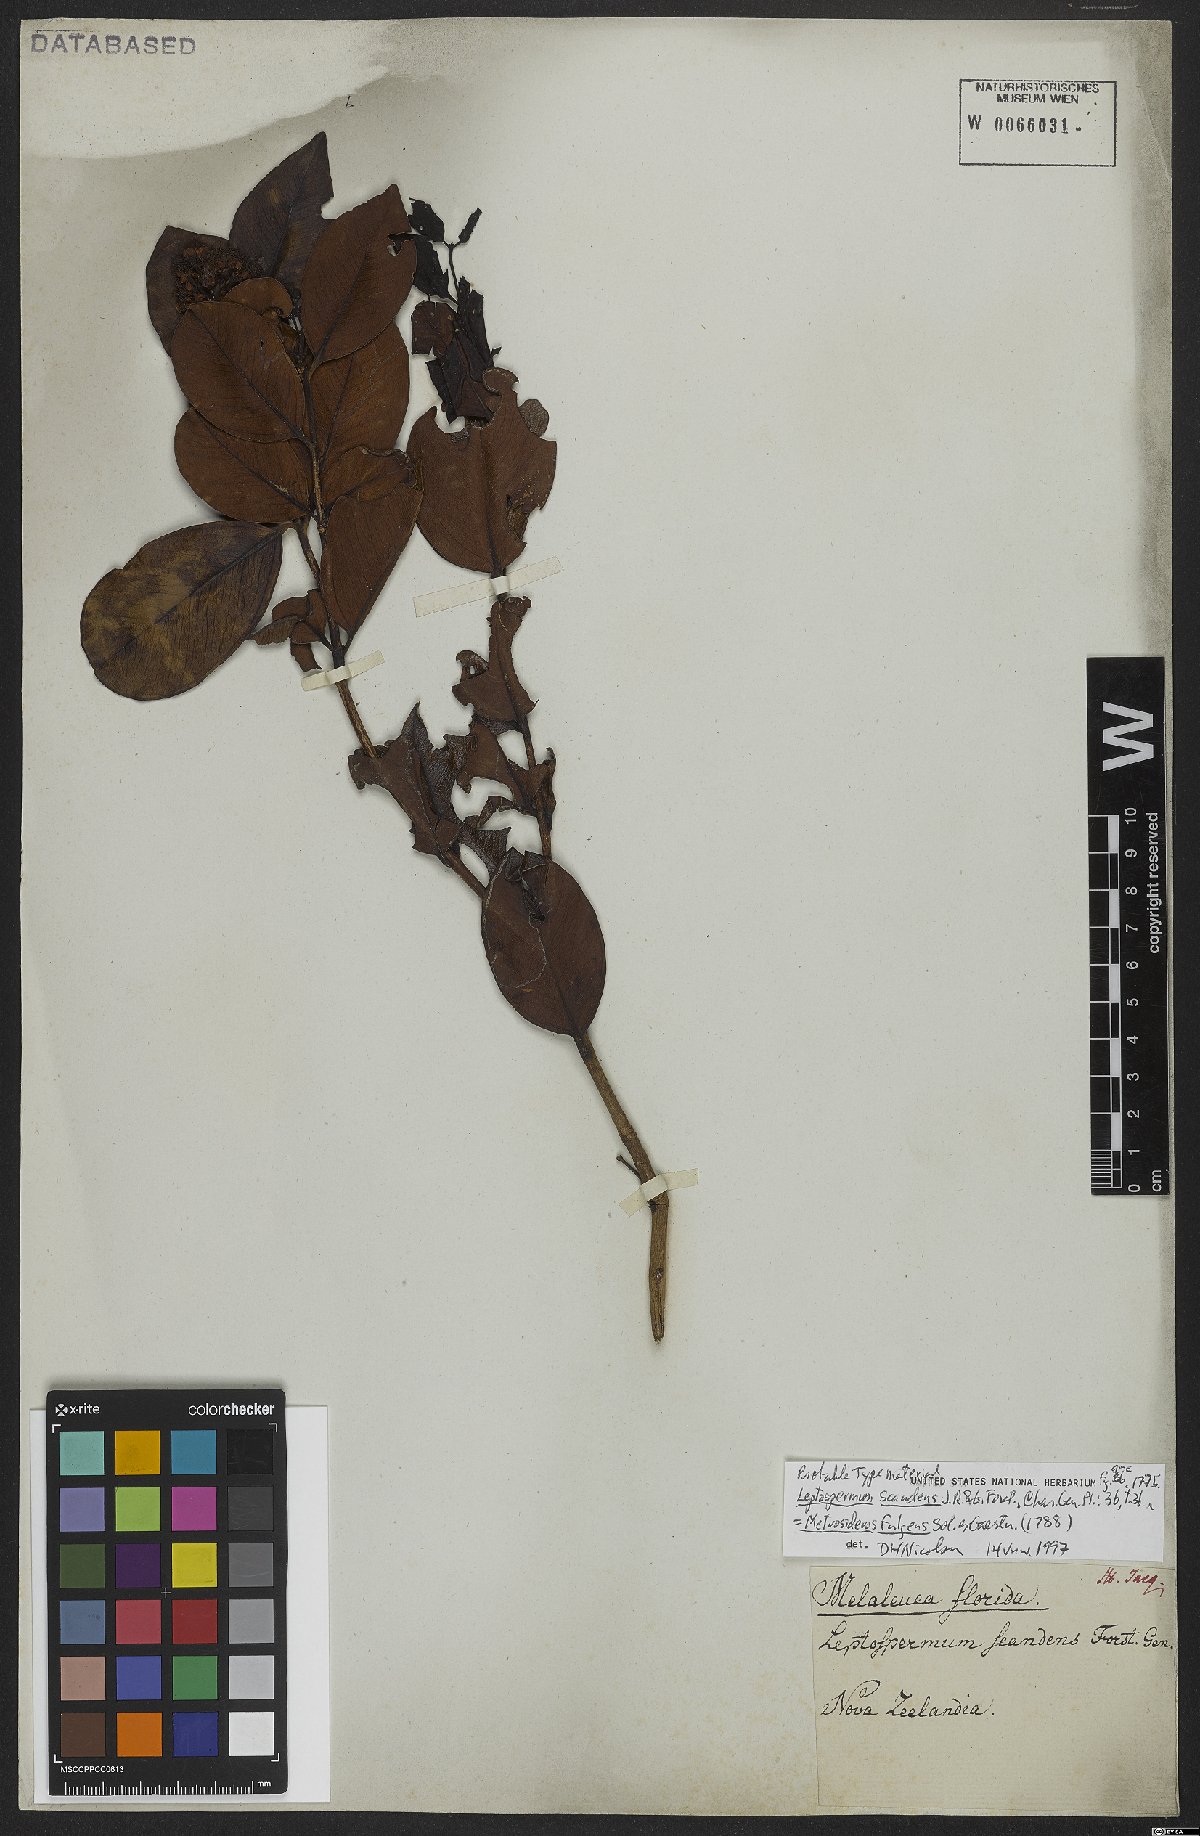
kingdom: Plantae
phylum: Tracheophyta
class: Magnoliopsida
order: Myrtales
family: Myrtaceae
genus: Metrosideros
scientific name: Metrosideros fulgens
